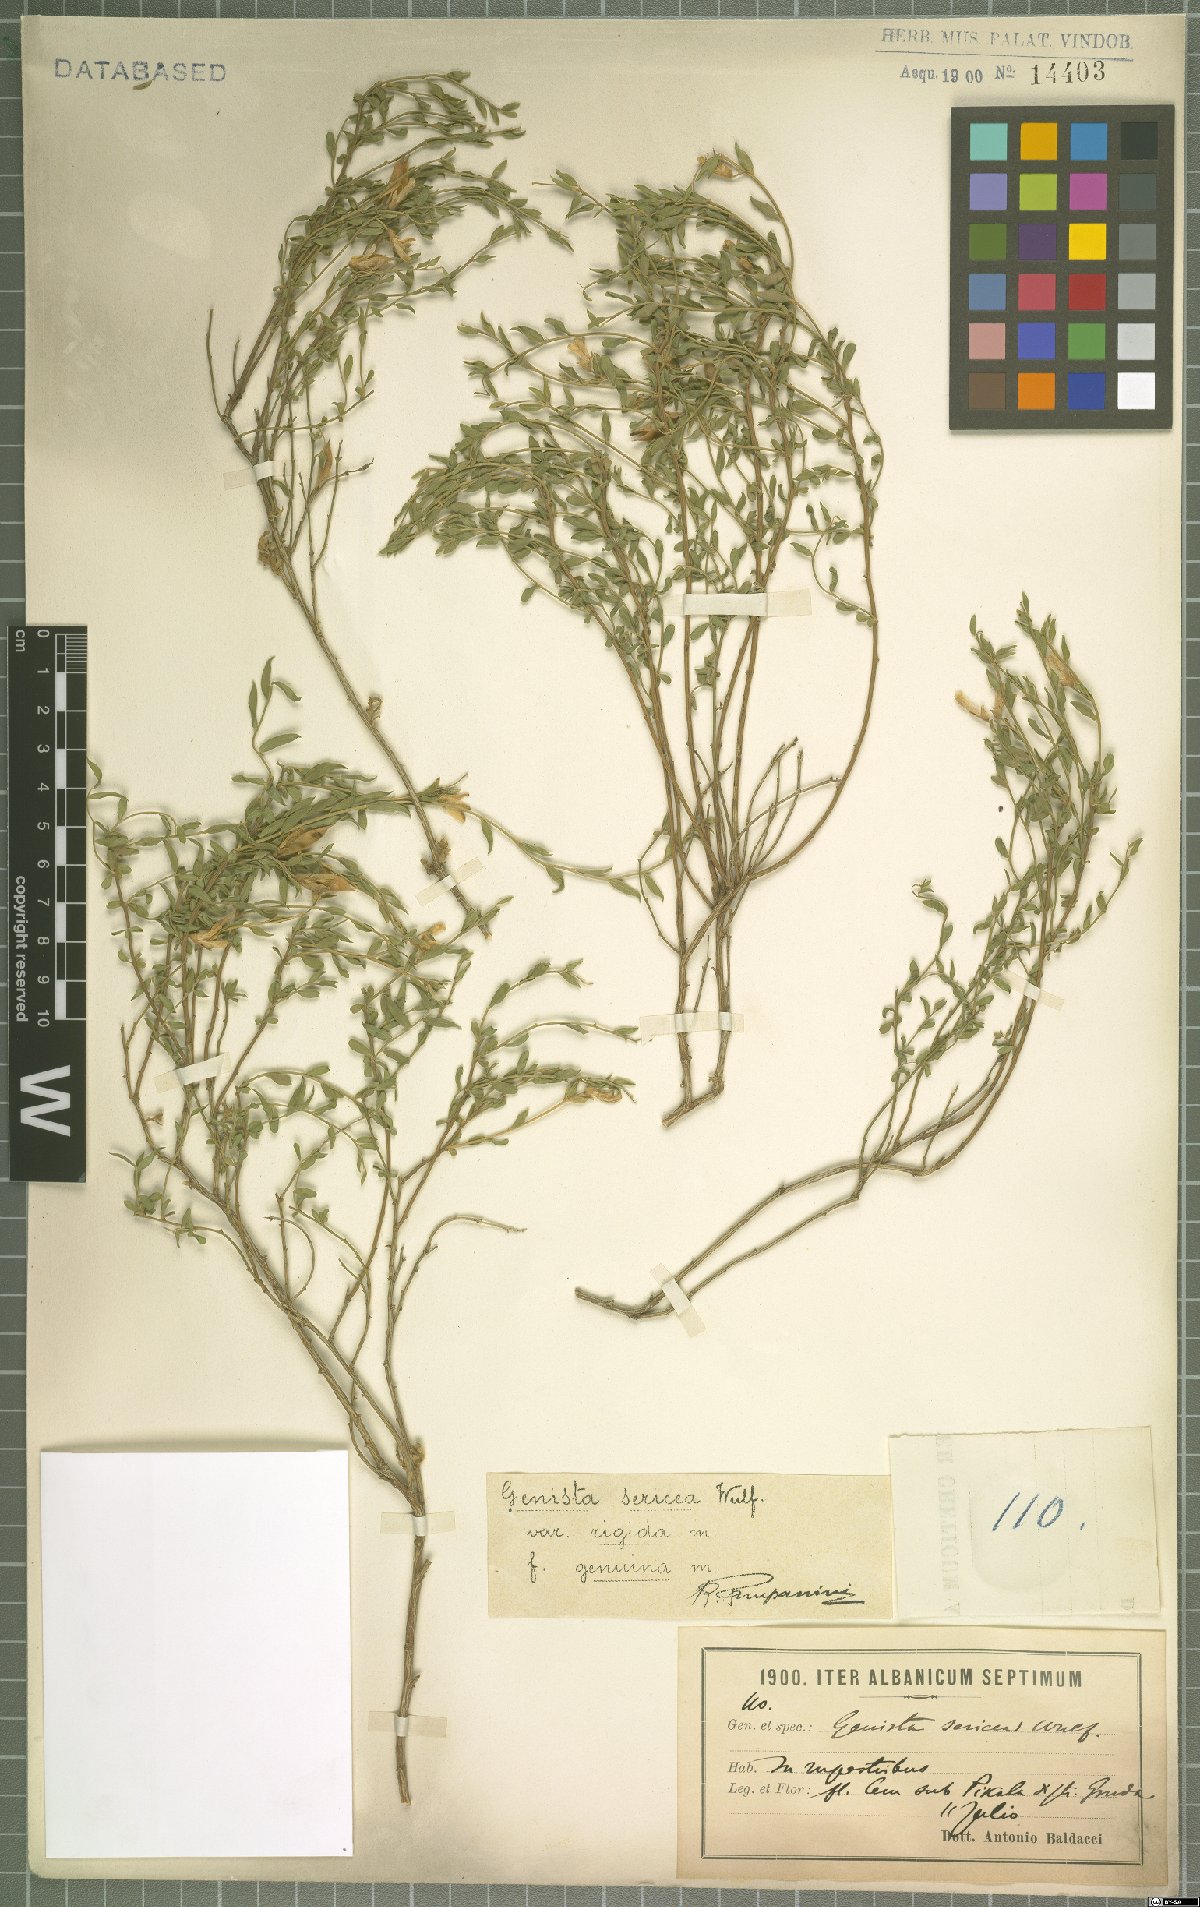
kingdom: Plantae
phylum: Tracheophyta
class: Magnoliopsida
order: Fabales
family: Fabaceae
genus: Genista
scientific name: Genista sericea
